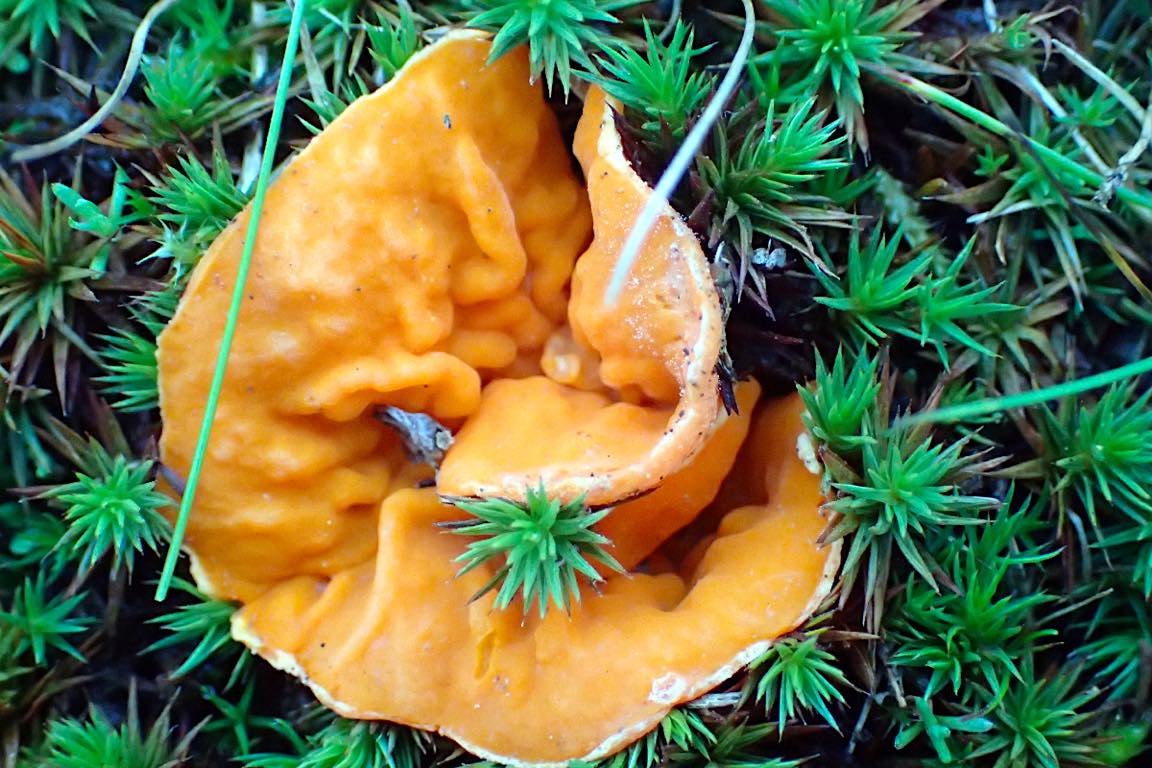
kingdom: Fungi
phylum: Ascomycota
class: Pezizomycetes
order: Pezizales
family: Pyronemataceae
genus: Neottiella
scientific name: Neottiella rutilans
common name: jomfruhår-mosbæger
